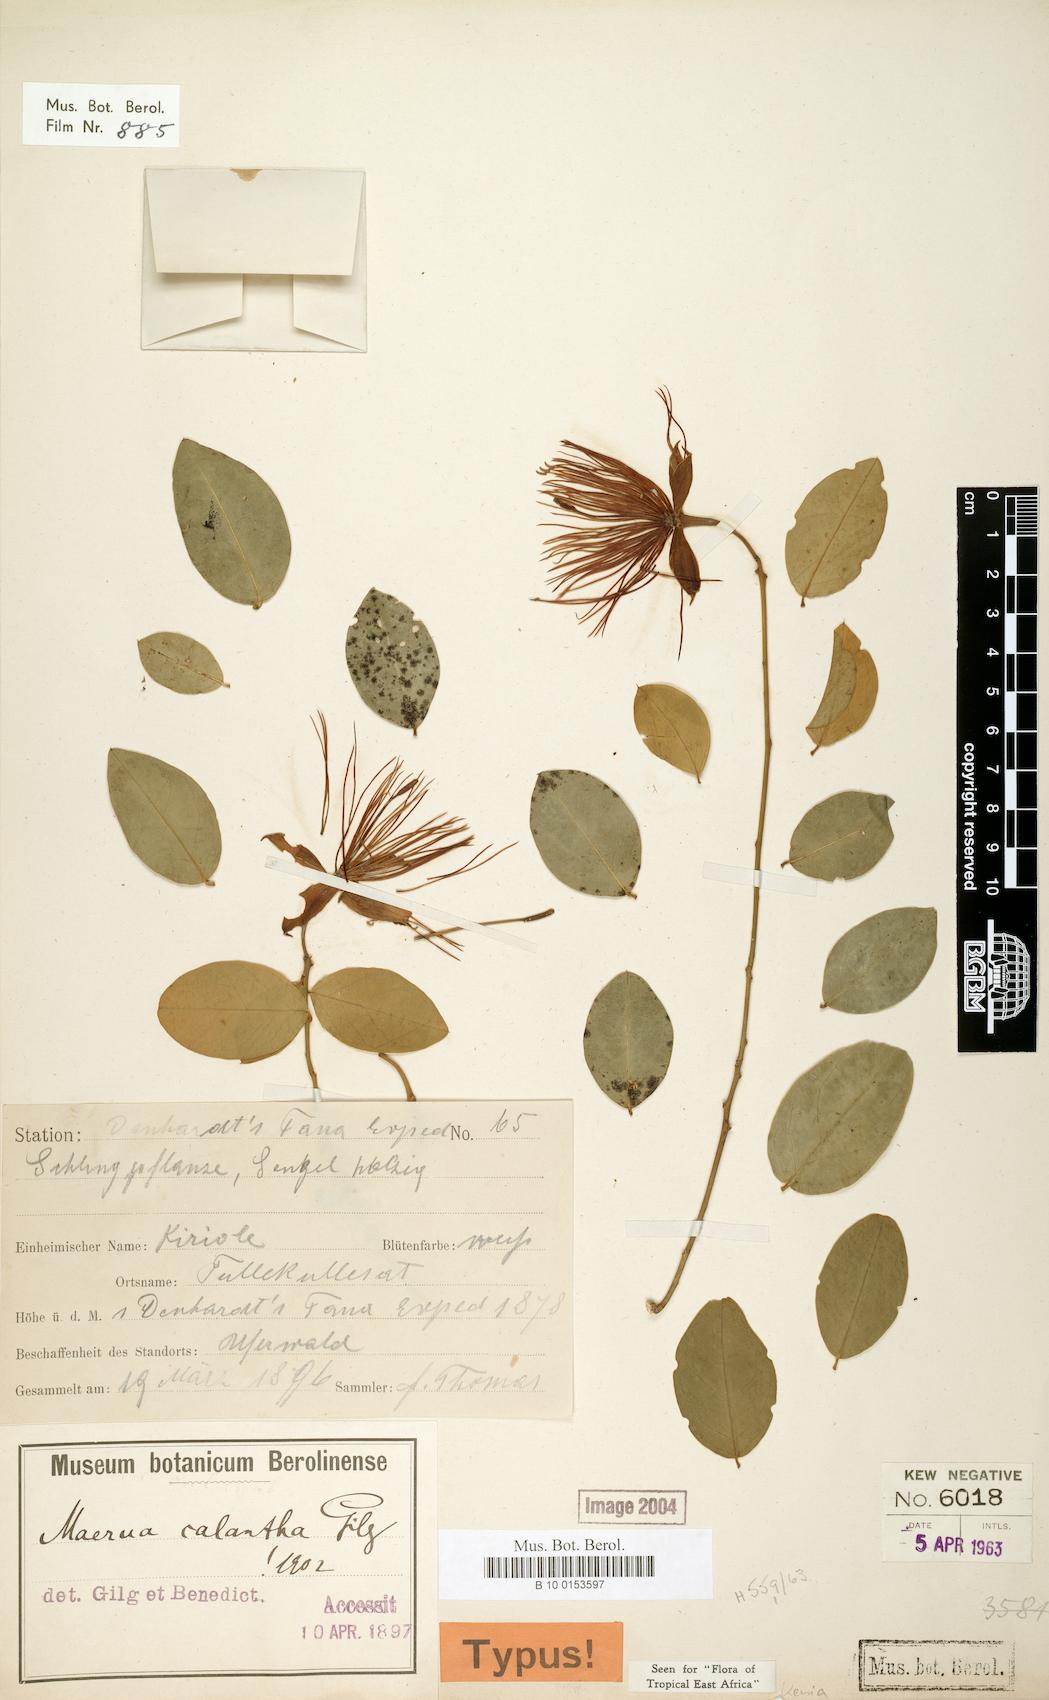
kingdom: Plantae
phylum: Tracheophyta
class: Magnoliopsida
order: Brassicales
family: Capparaceae
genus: Maerua
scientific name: Maerua calantha
